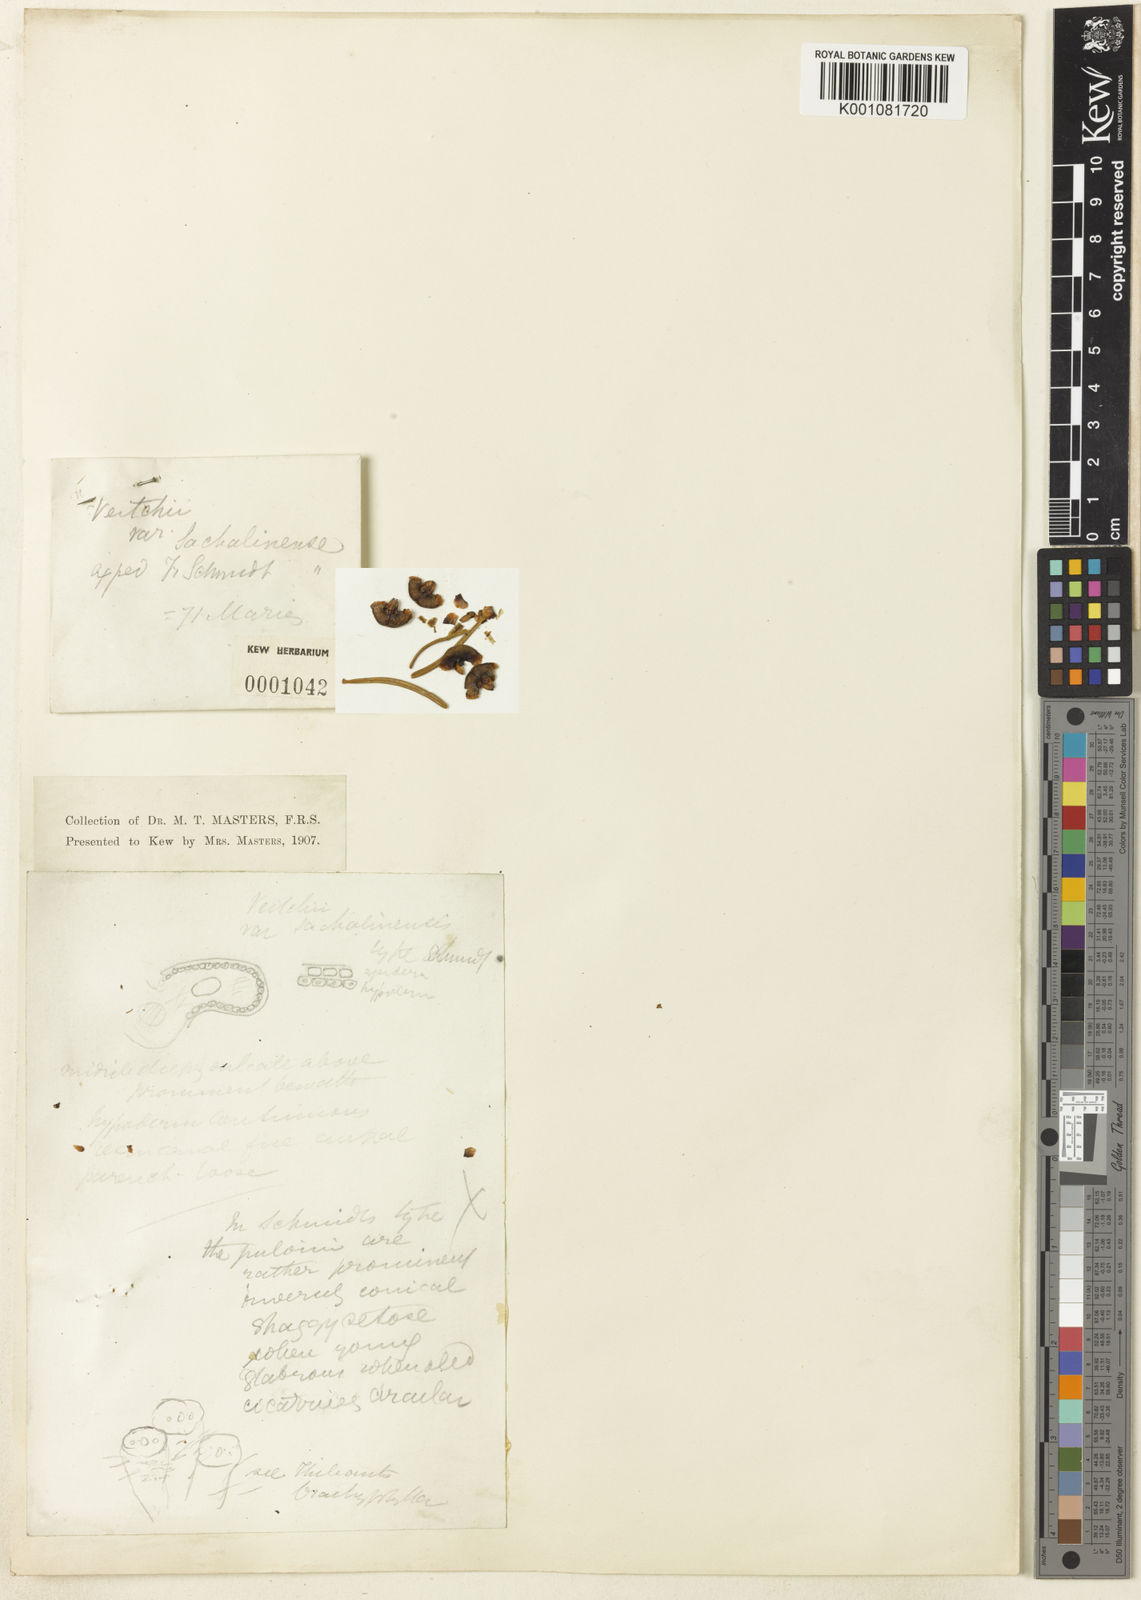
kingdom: Plantae
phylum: Tracheophyta
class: Pinopsida
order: Pinales
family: Pinaceae
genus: Abies
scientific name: Abies sachalinensis
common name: Sakhalin fir
